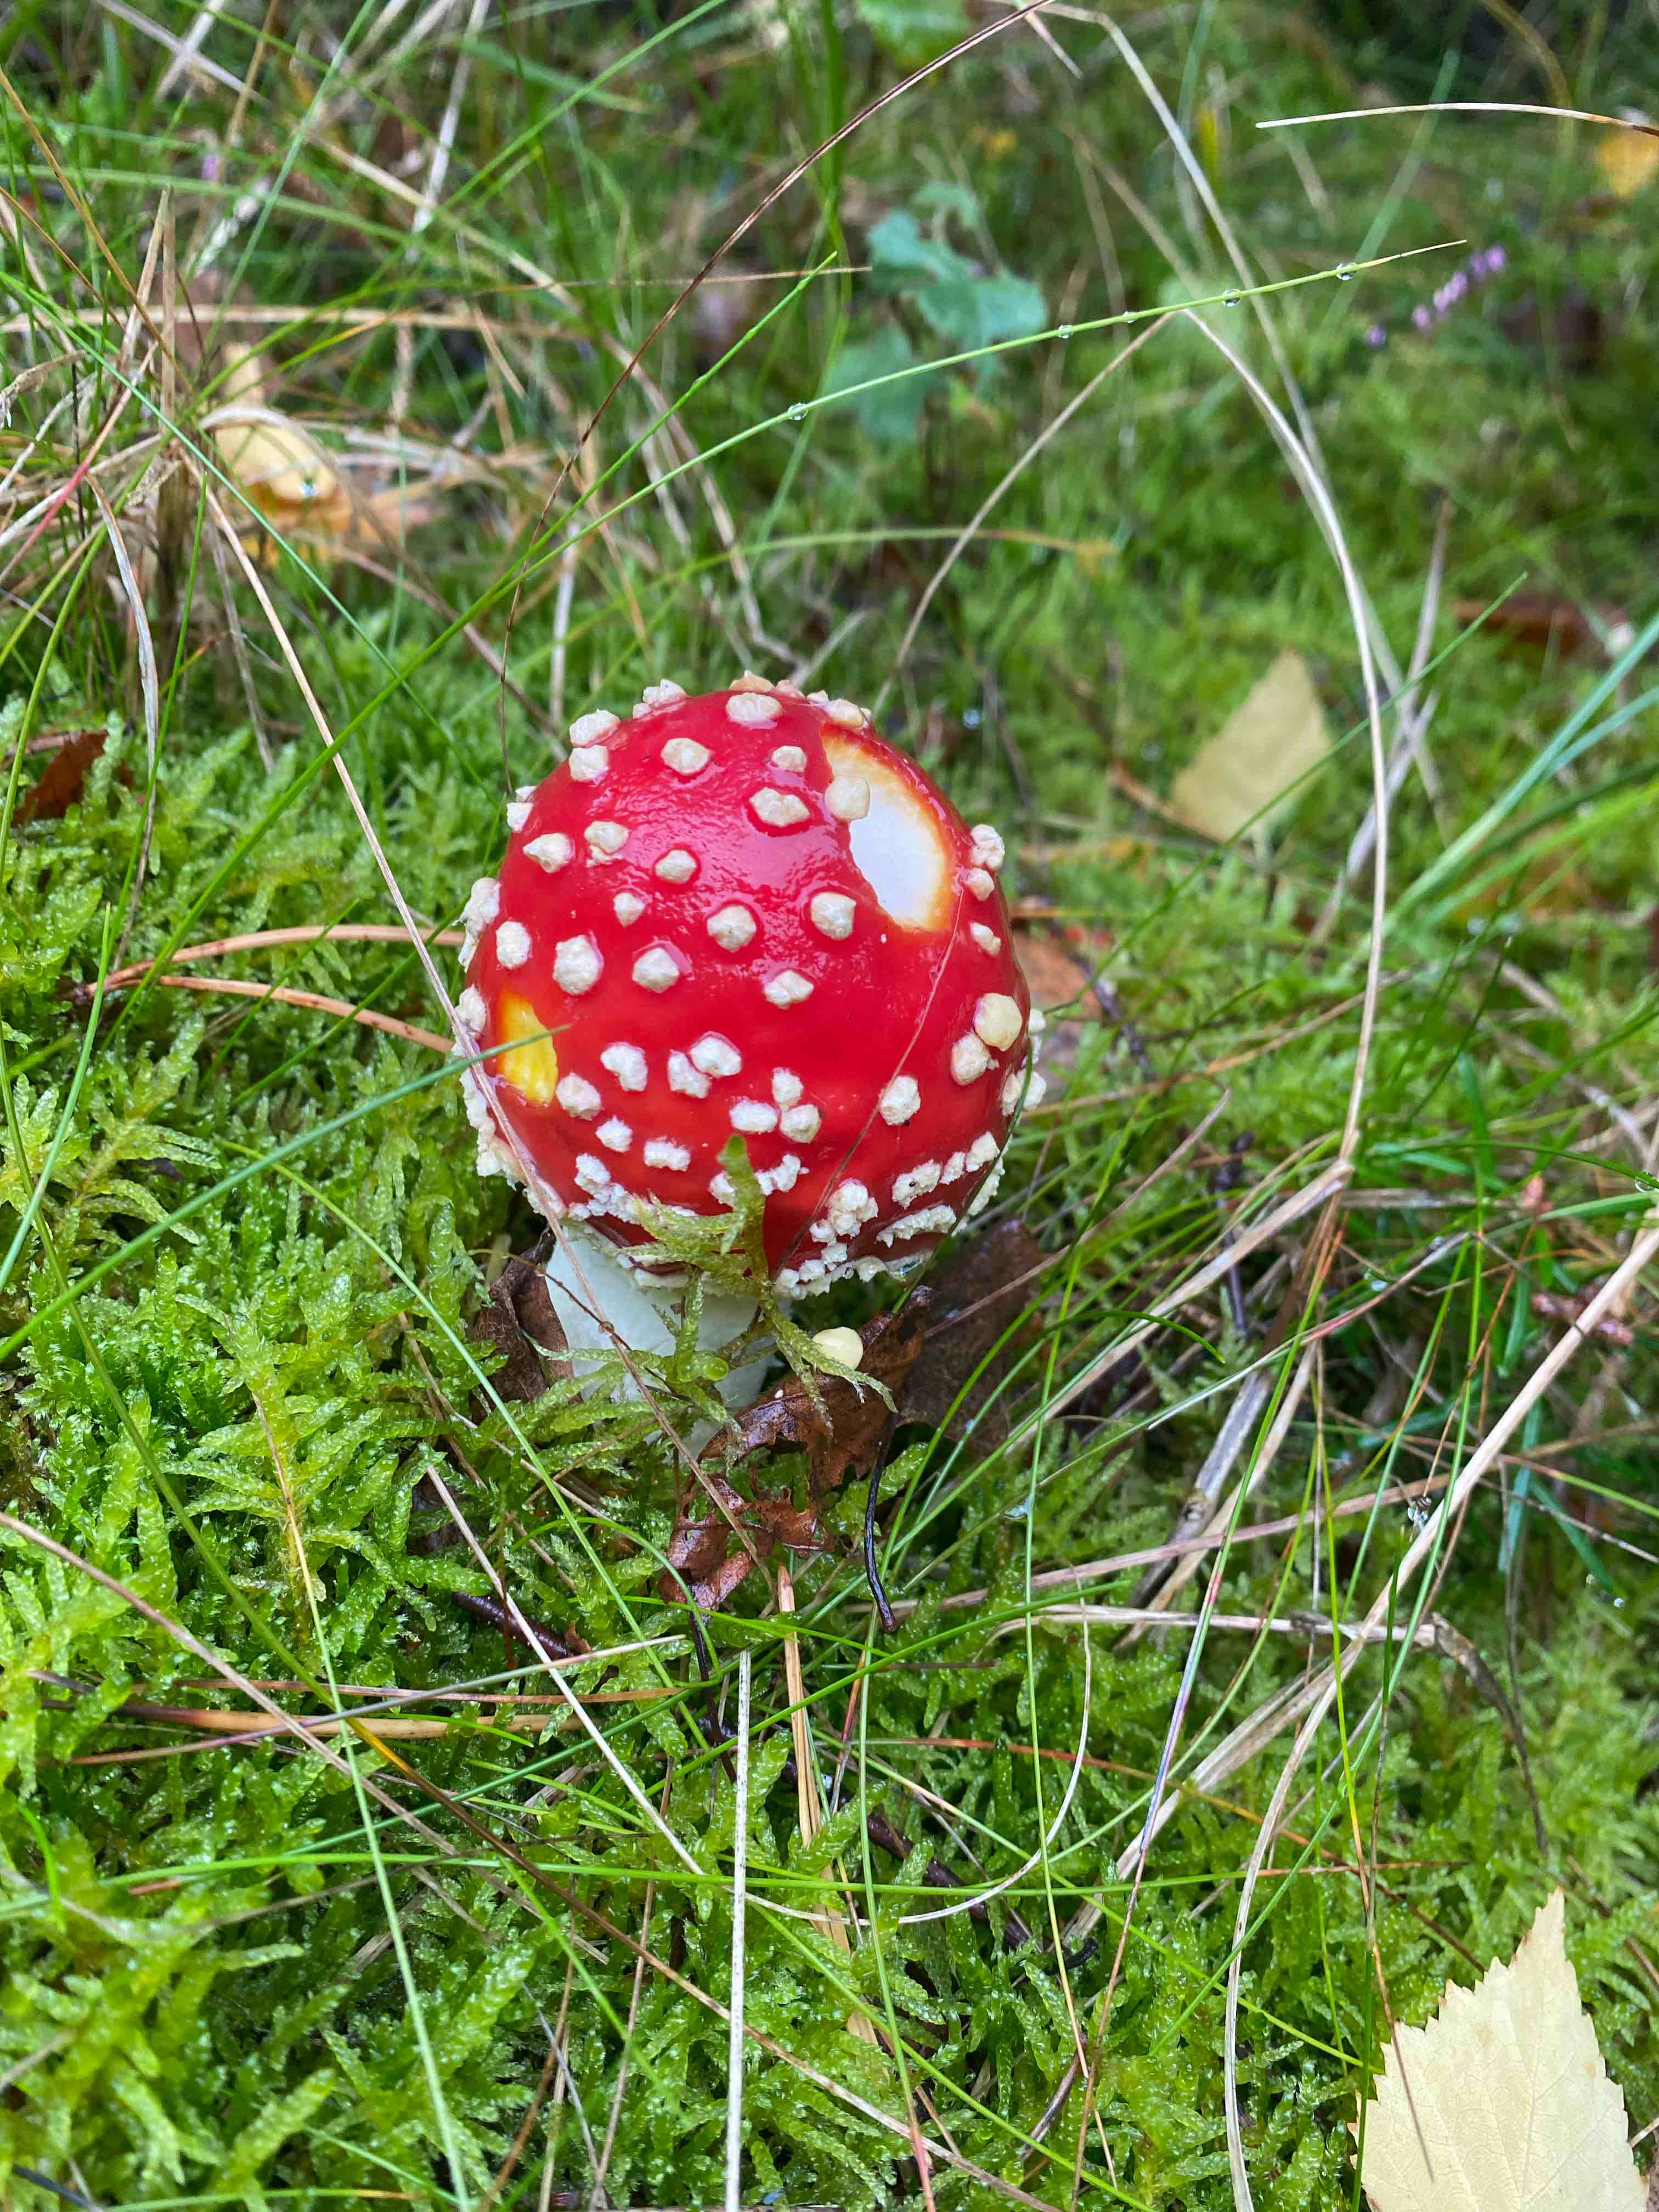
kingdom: Fungi
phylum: Basidiomycota
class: Agaricomycetes
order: Agaricales
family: Amanitaceae
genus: Amanita
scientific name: Amanita muscaria
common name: rød fluesvamp
